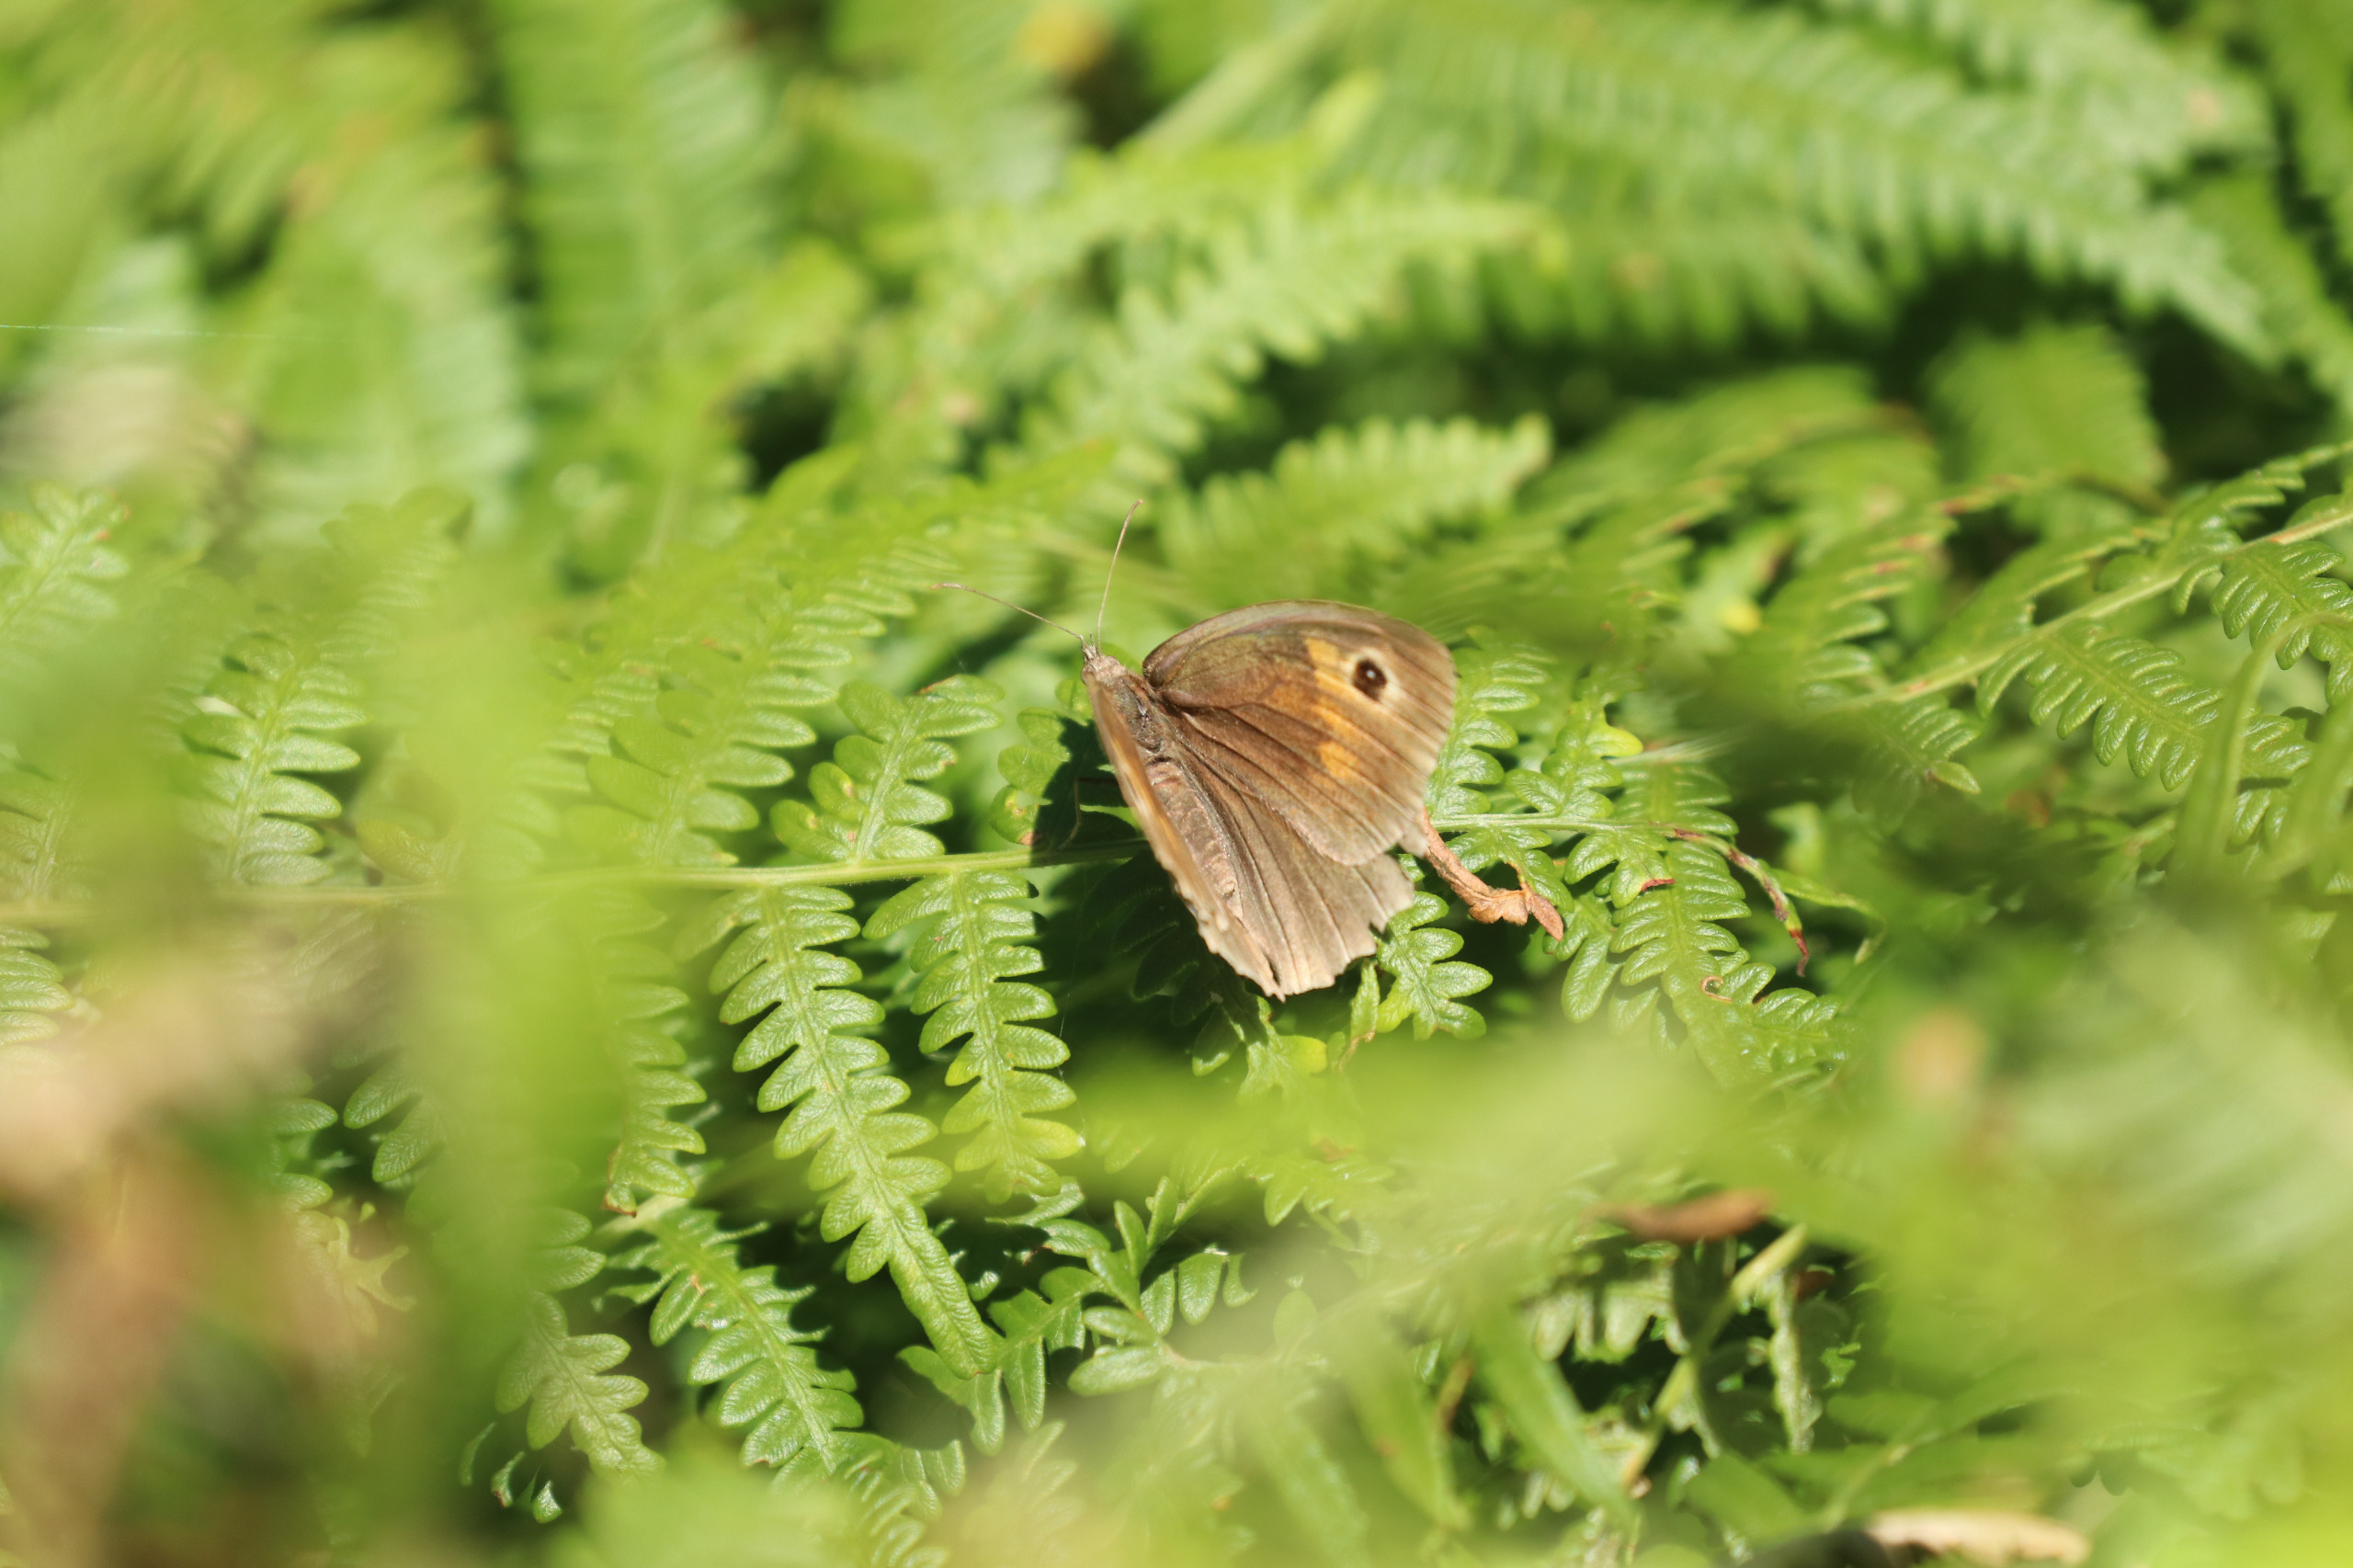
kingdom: Animalia
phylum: Arthropoda
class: Insecta
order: Lepidoptera
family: Nymphalidae
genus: Maniola
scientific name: Maniola jurtina
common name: Græsrandøje
